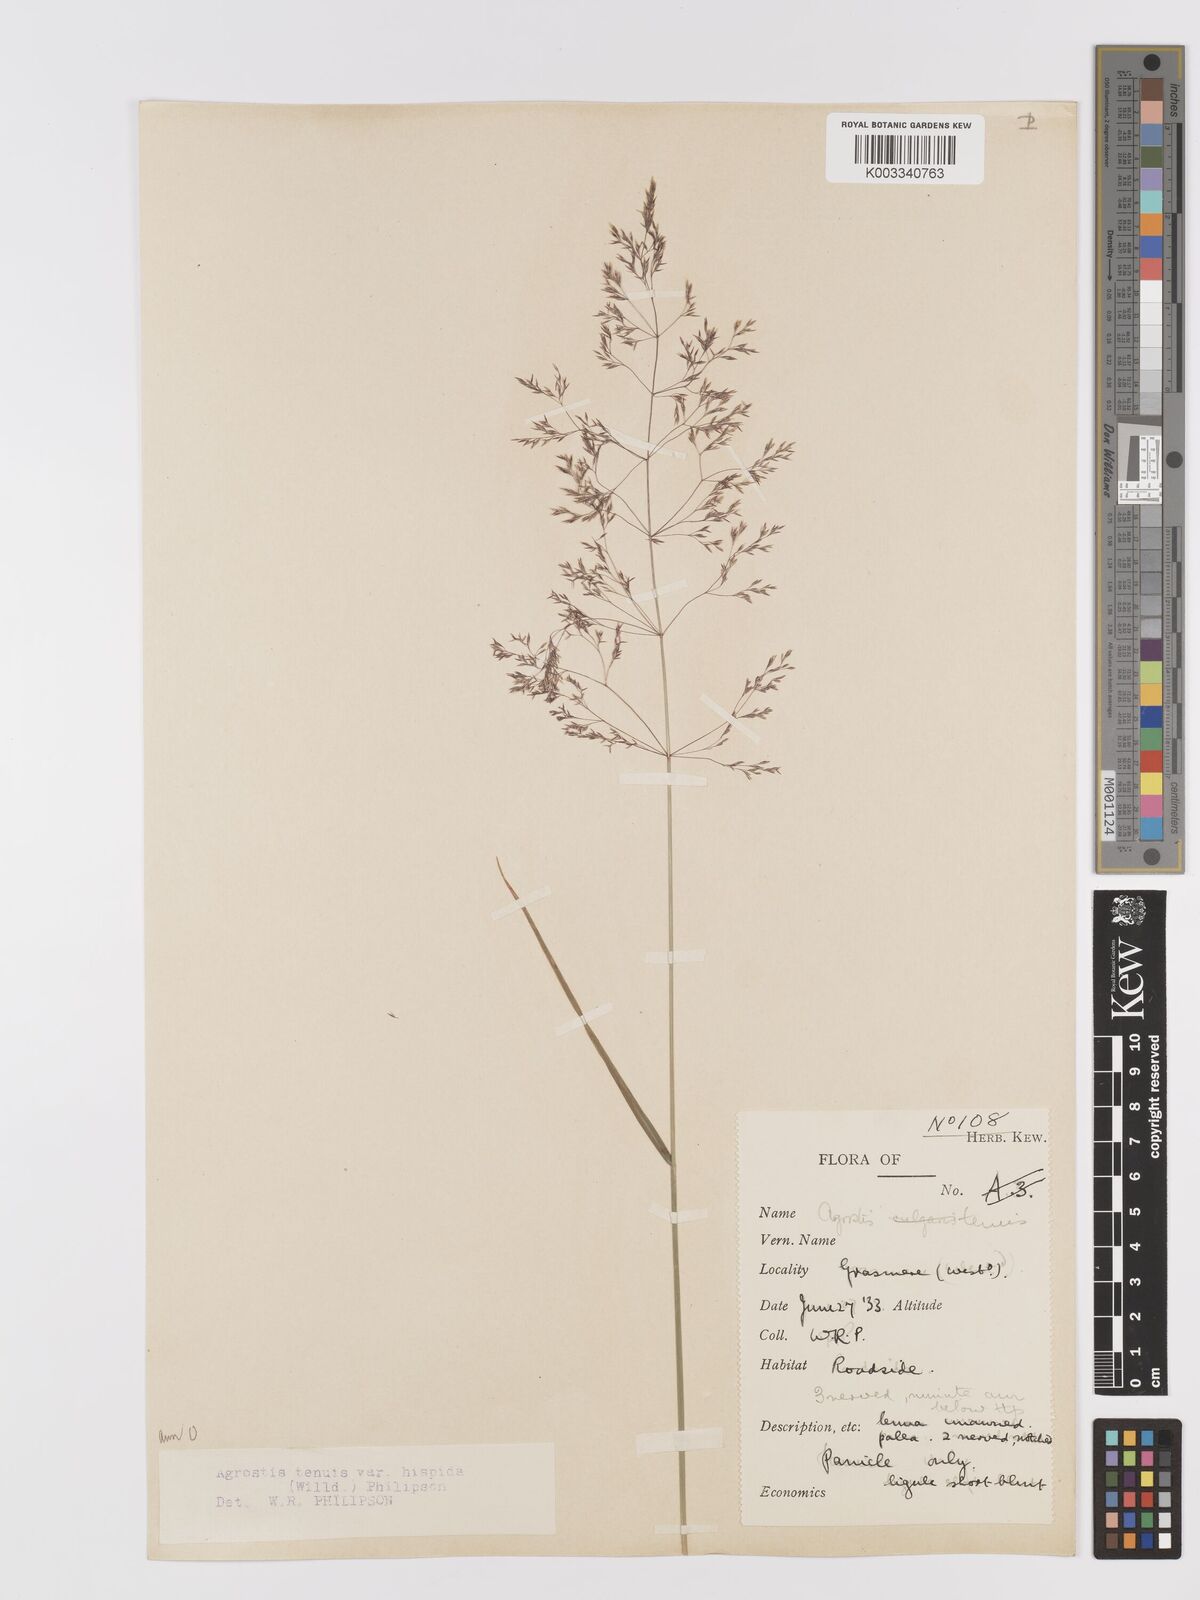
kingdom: Plantae
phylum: Tracheophyta
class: Liliopsida
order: Poales
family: Poaceae
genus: Agrostis
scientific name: Agrostis capillaris
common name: Colonial bentgrass
